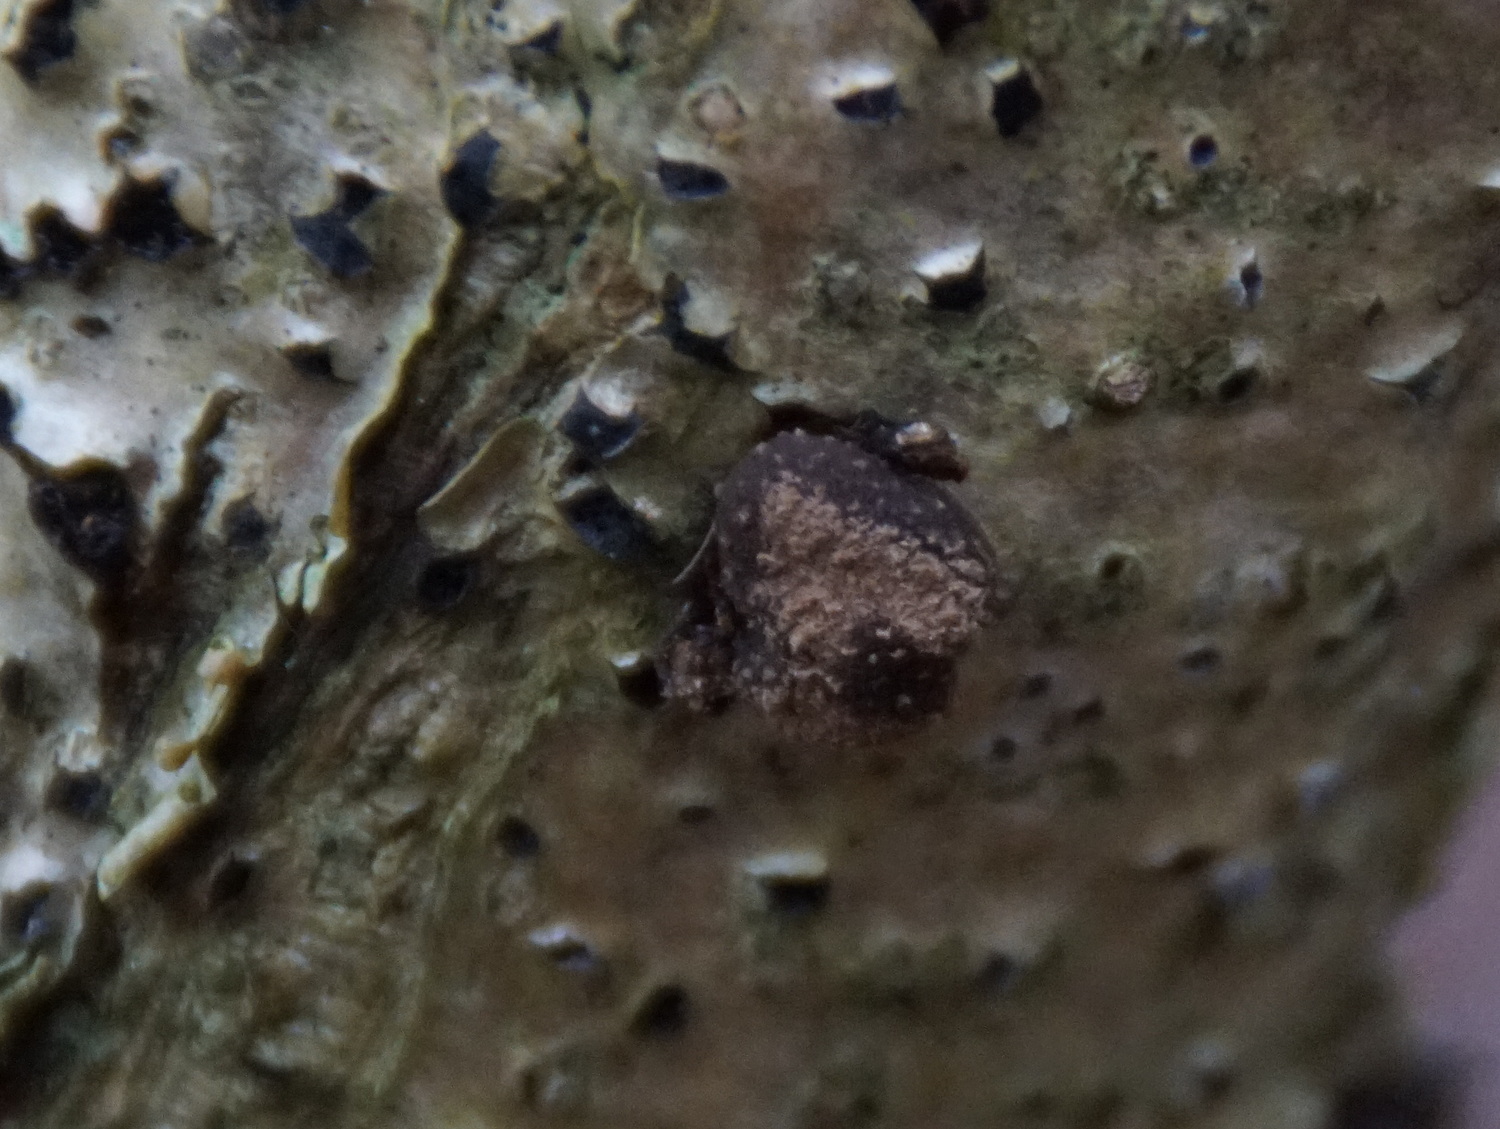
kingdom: Fungi
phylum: Ascomycota
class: Leotiomycetes
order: Helotiales
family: Cenangiaceae
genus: Encoelia
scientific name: Encoelia furfuracea
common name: hassel-læderskive
